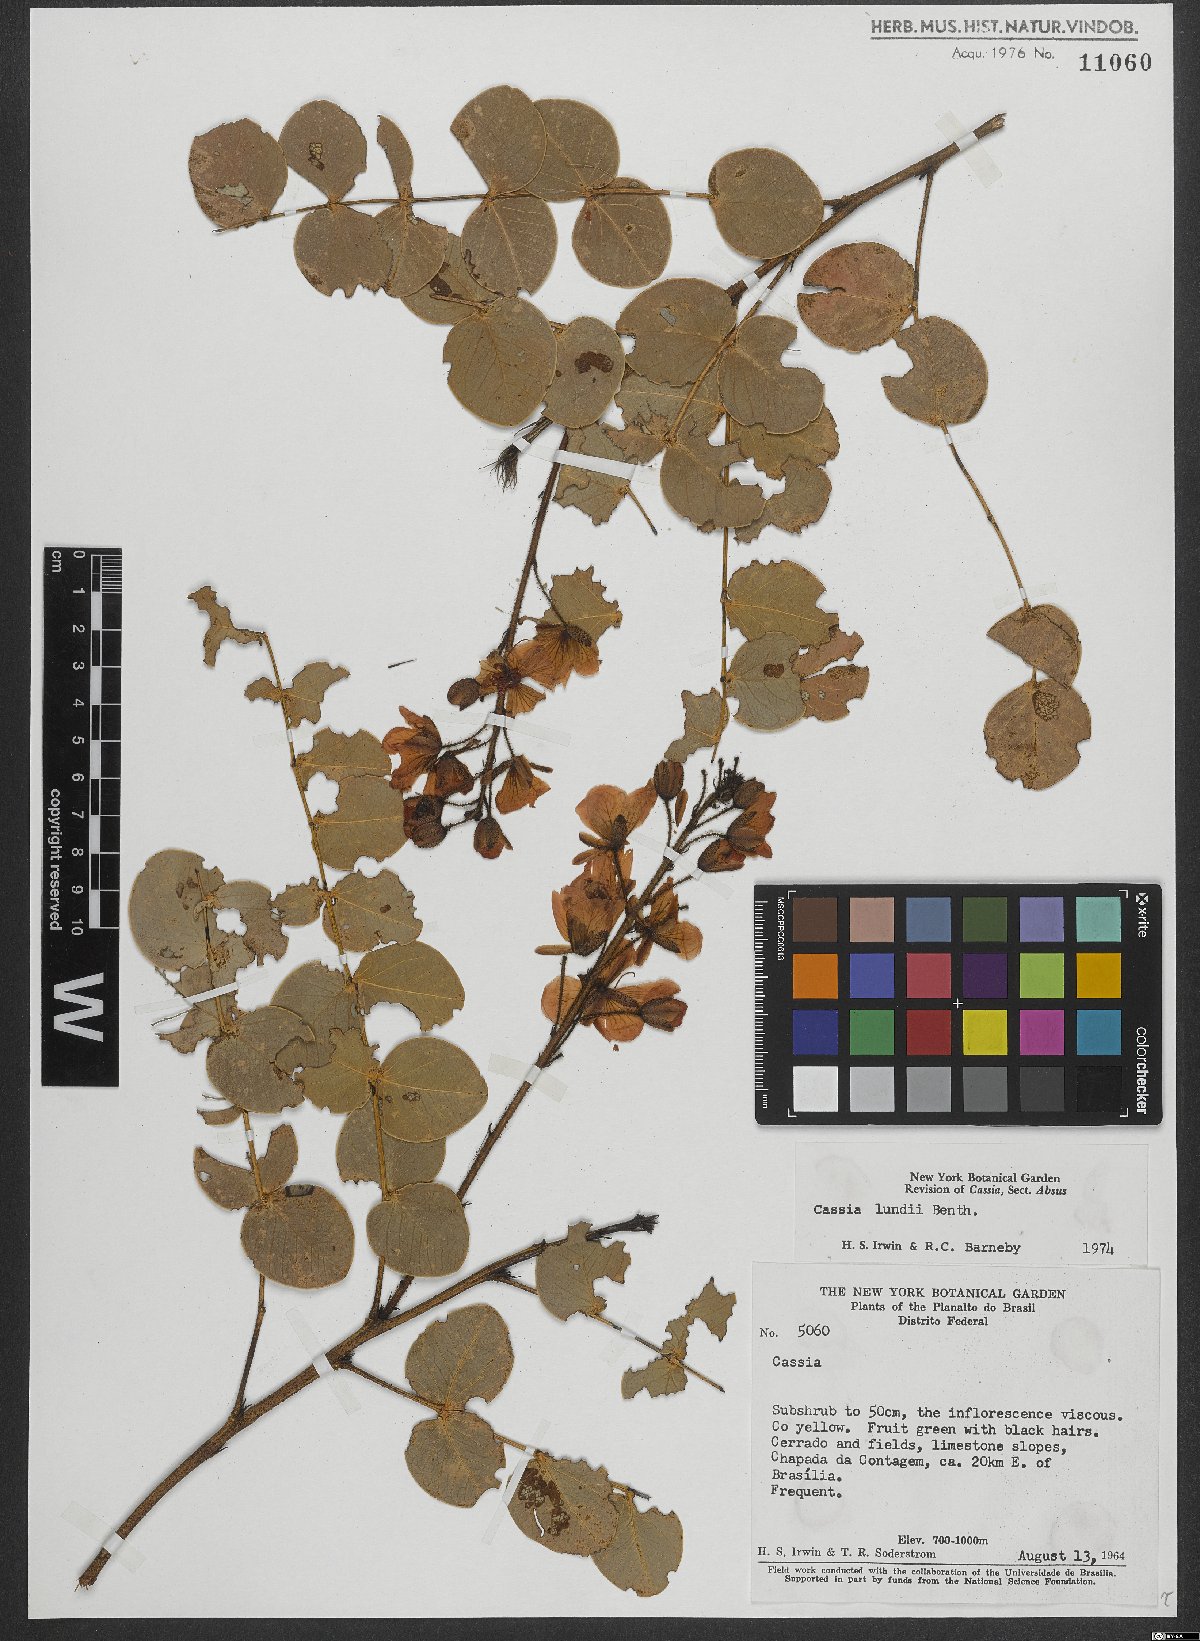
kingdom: Plantae
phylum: Tracheophyta
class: Magnoliopsida
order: Fabales
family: Fabaceae
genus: Chamaecrista
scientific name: Chamaecrista lundii
